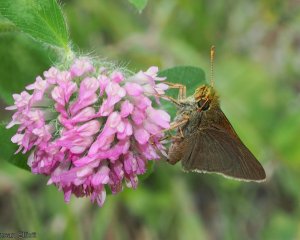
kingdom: Animalia
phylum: Arthropoda
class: Insecta
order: Lepidoptera
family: Hesperiidae
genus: Euphyes
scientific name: Euphyes vestris
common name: Dun Skipper
